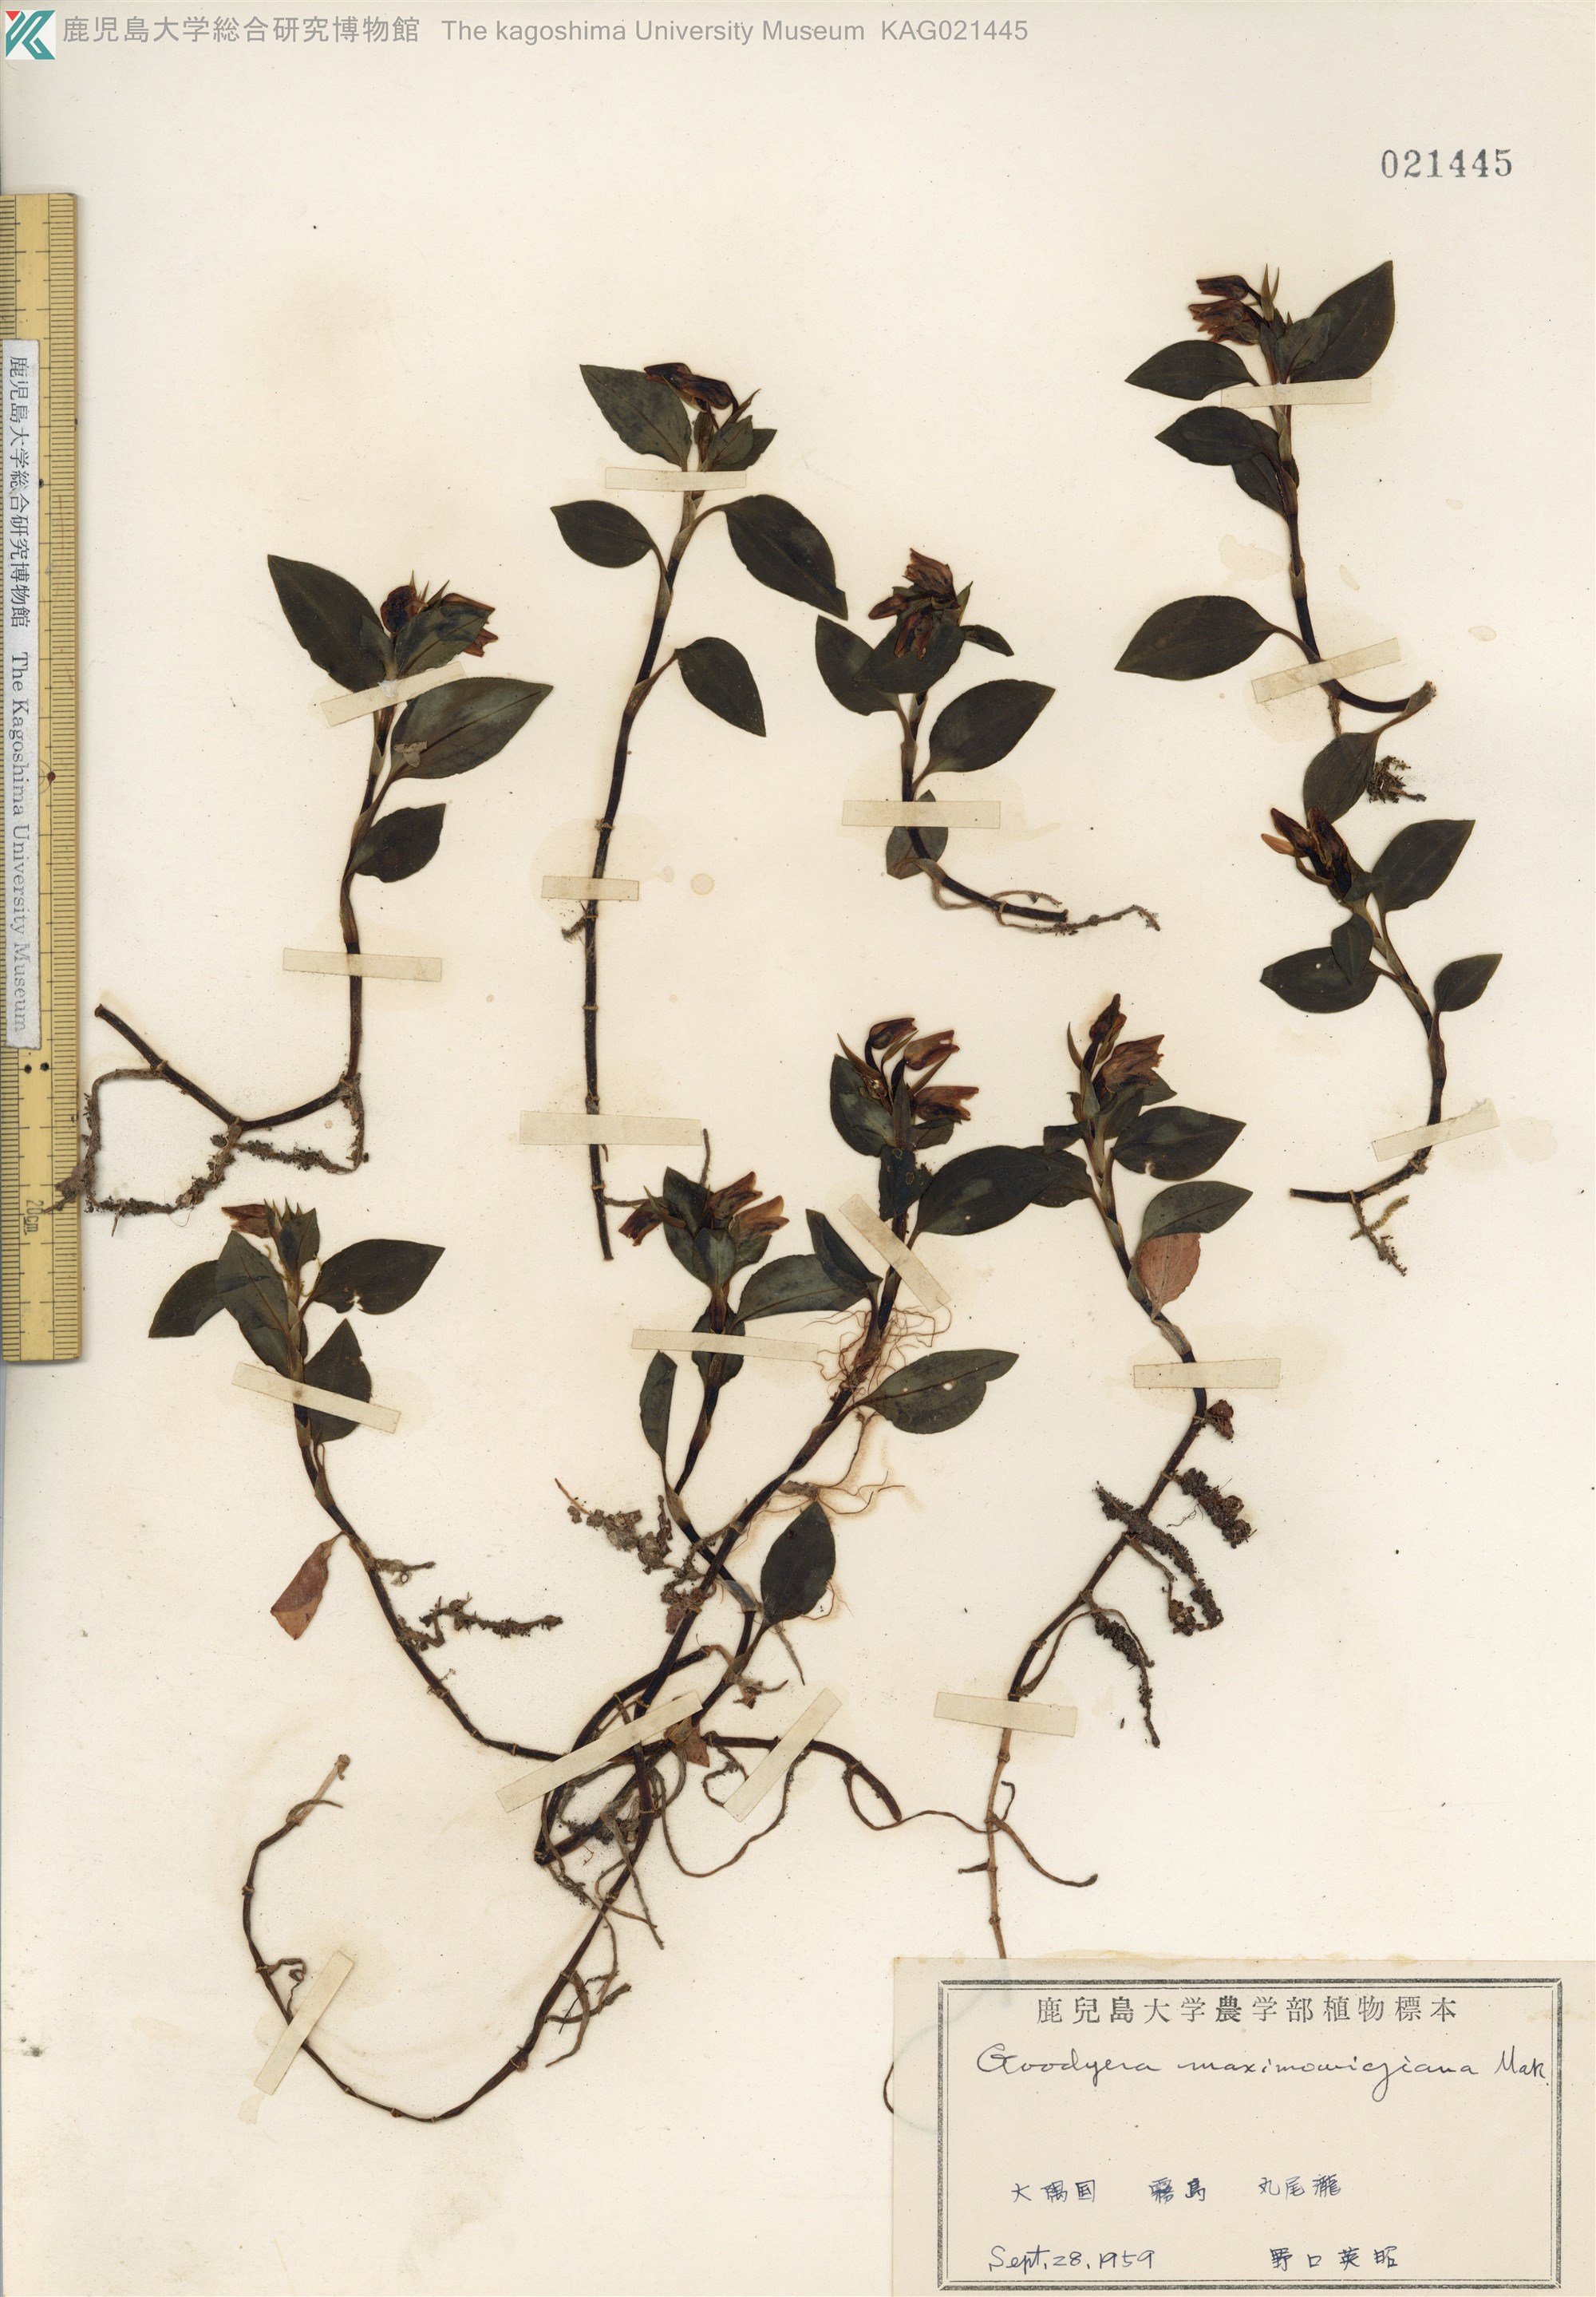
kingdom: Plantae
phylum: Tracheophyta
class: Liliopsida
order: Asparagales
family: Orchidaceae
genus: Goodyera
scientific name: Goodyera henryi
